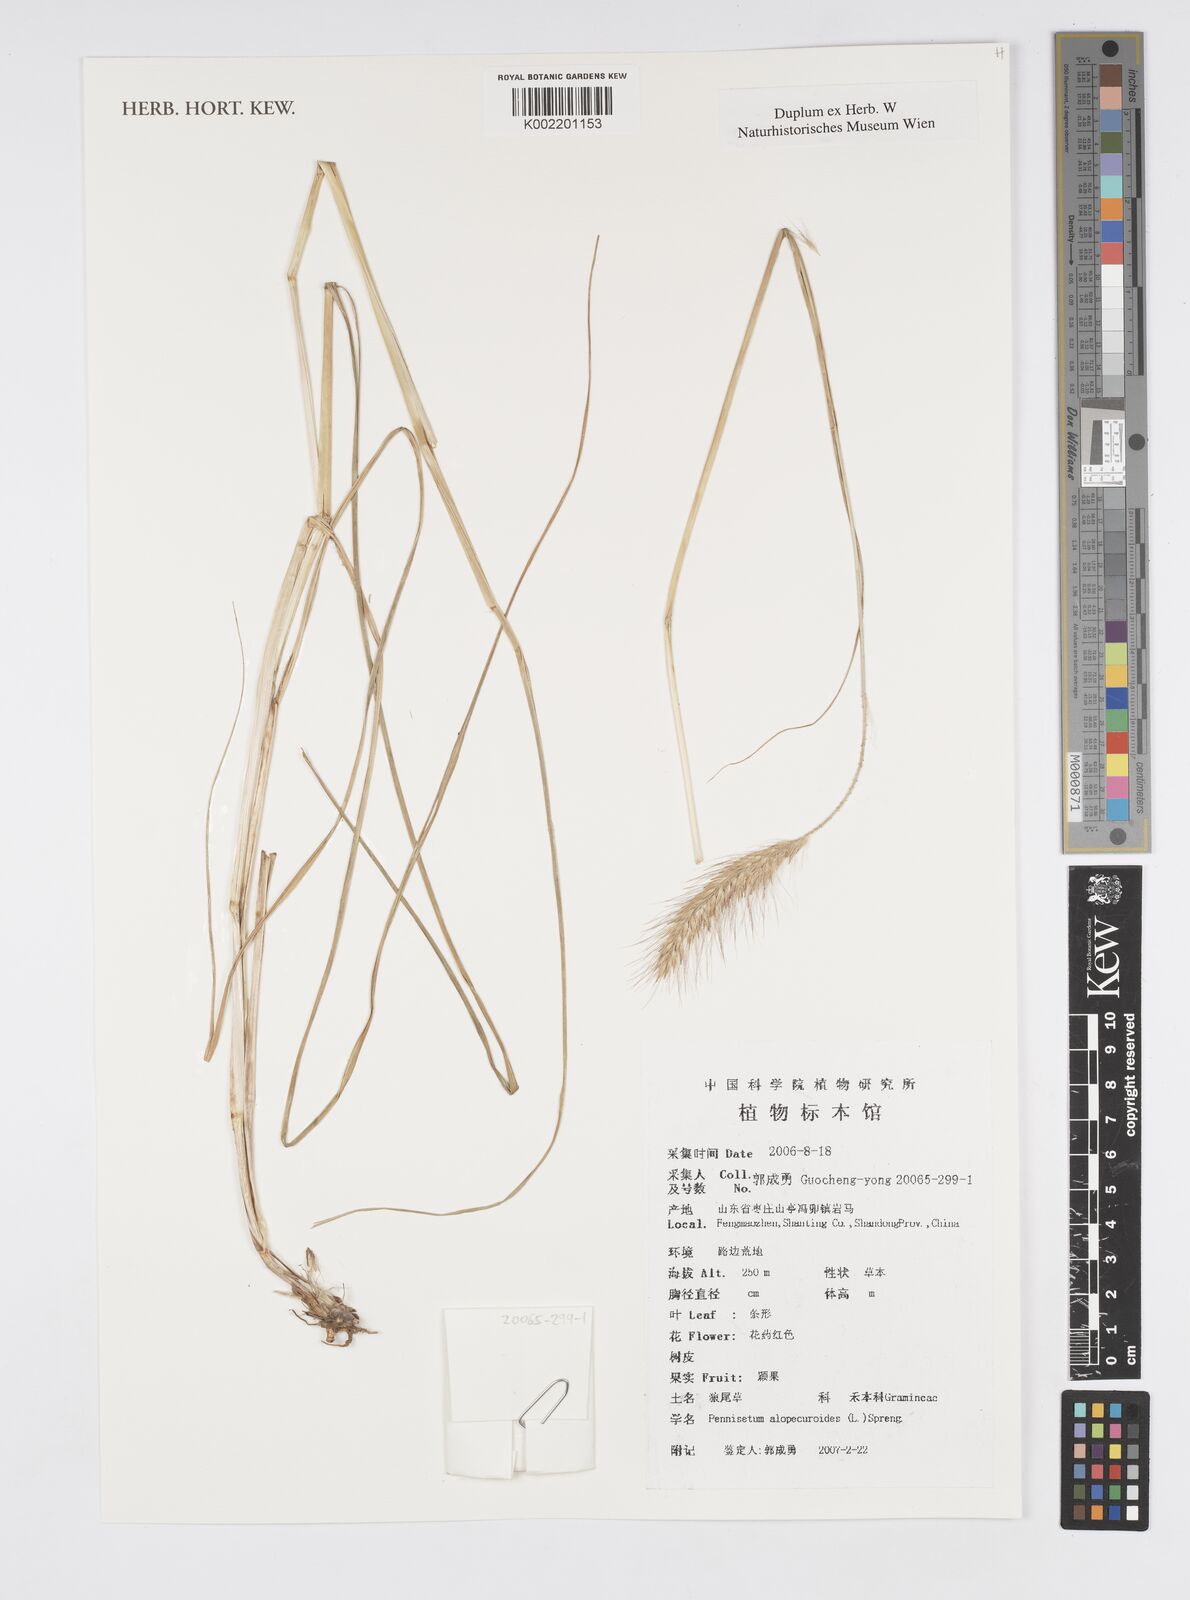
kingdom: Plantae
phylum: Tracheophyta
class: Liliopsida
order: Poales
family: Poaceae
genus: Cenchrus
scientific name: Cenchrus alopecuroides
